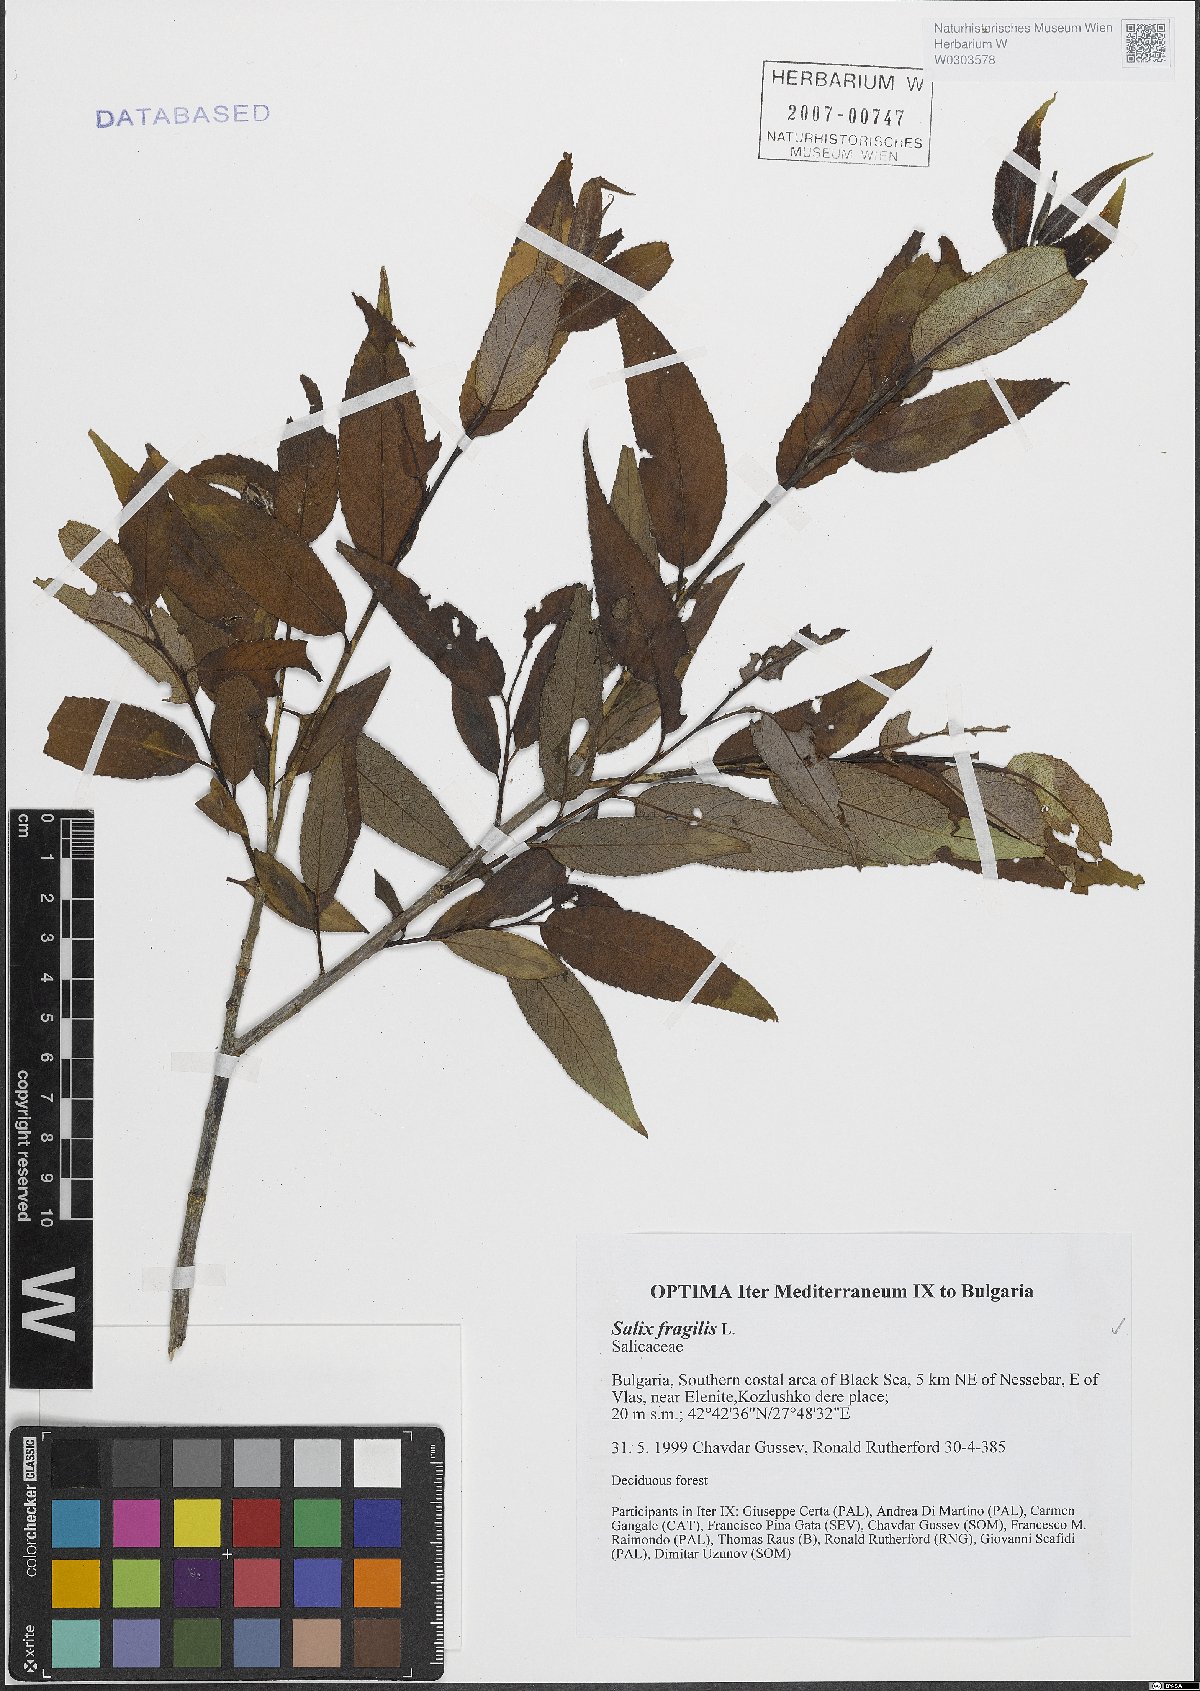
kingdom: Plantae
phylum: Tracheophyta
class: Magnoliopsida
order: Malpighiales
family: Salicaceae
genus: Salix
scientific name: Salix fragilis
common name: Crack willow
